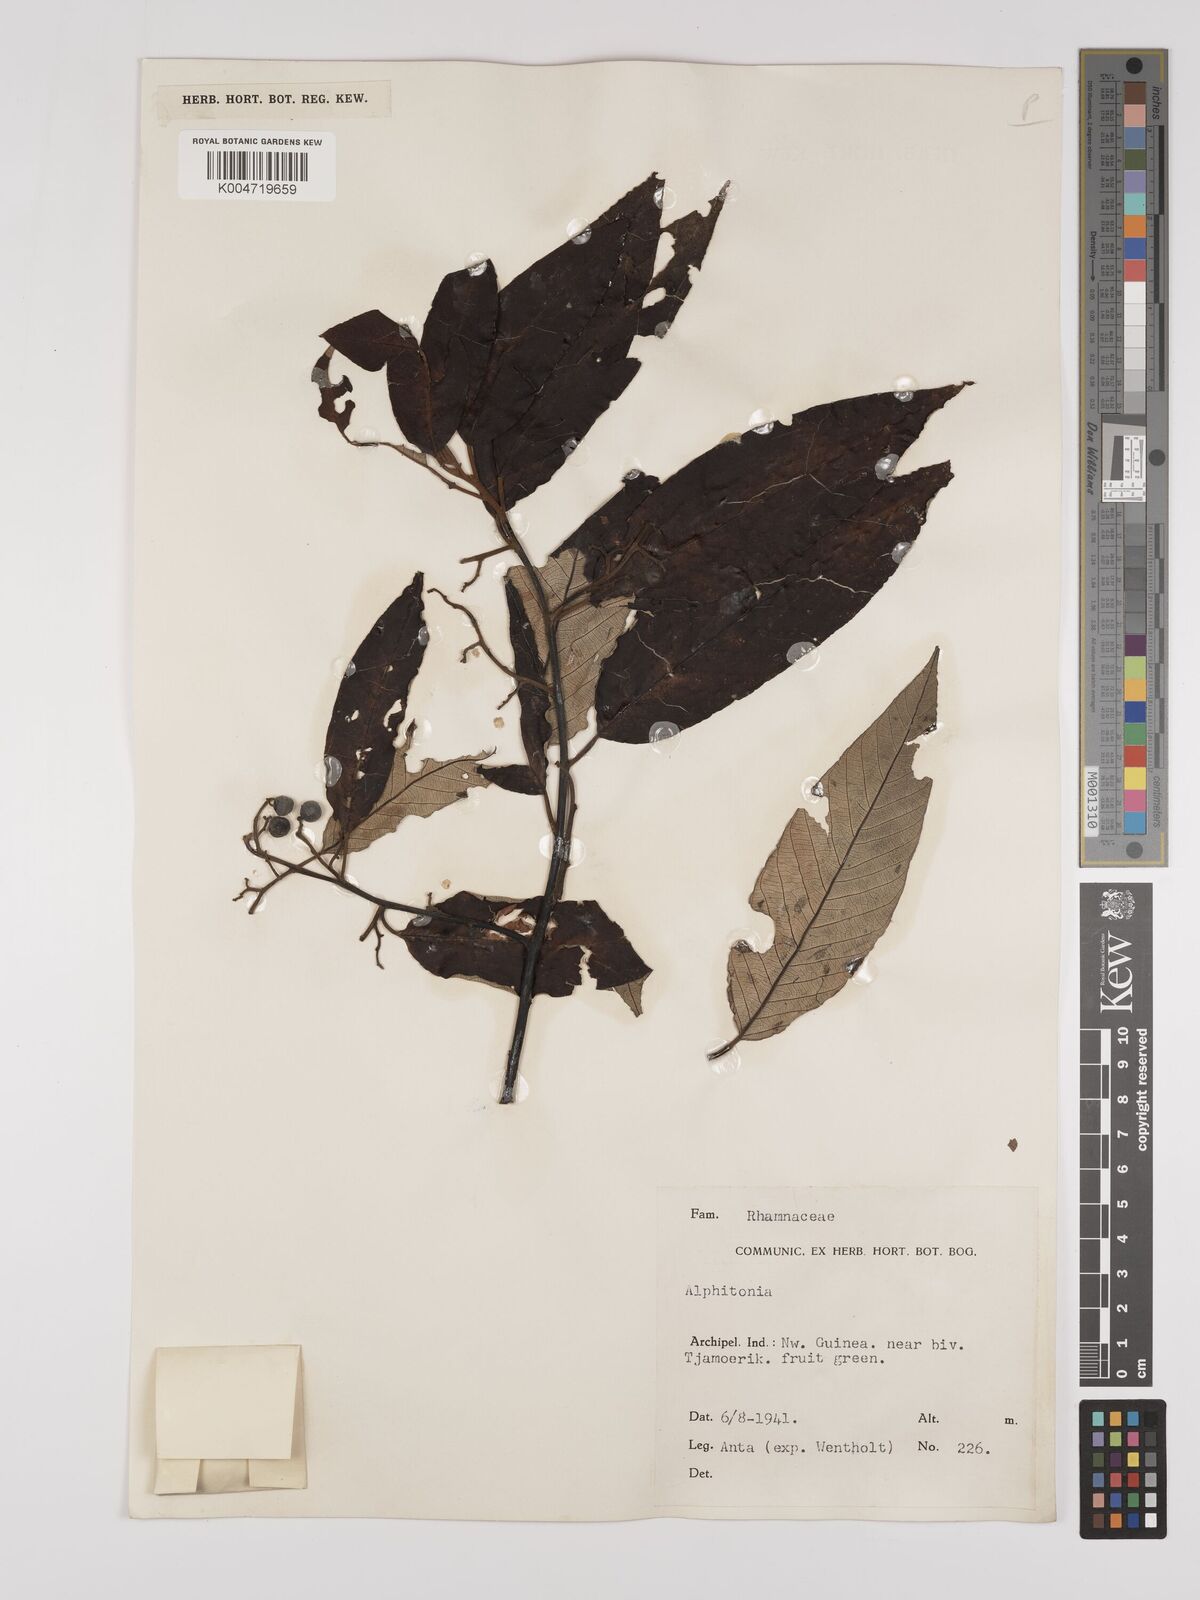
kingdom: Plantae
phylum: Tracheophyta
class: Magnoliopsida
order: Rosales
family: Rhamnaceae
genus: Alphitonia
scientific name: Alphitonia
